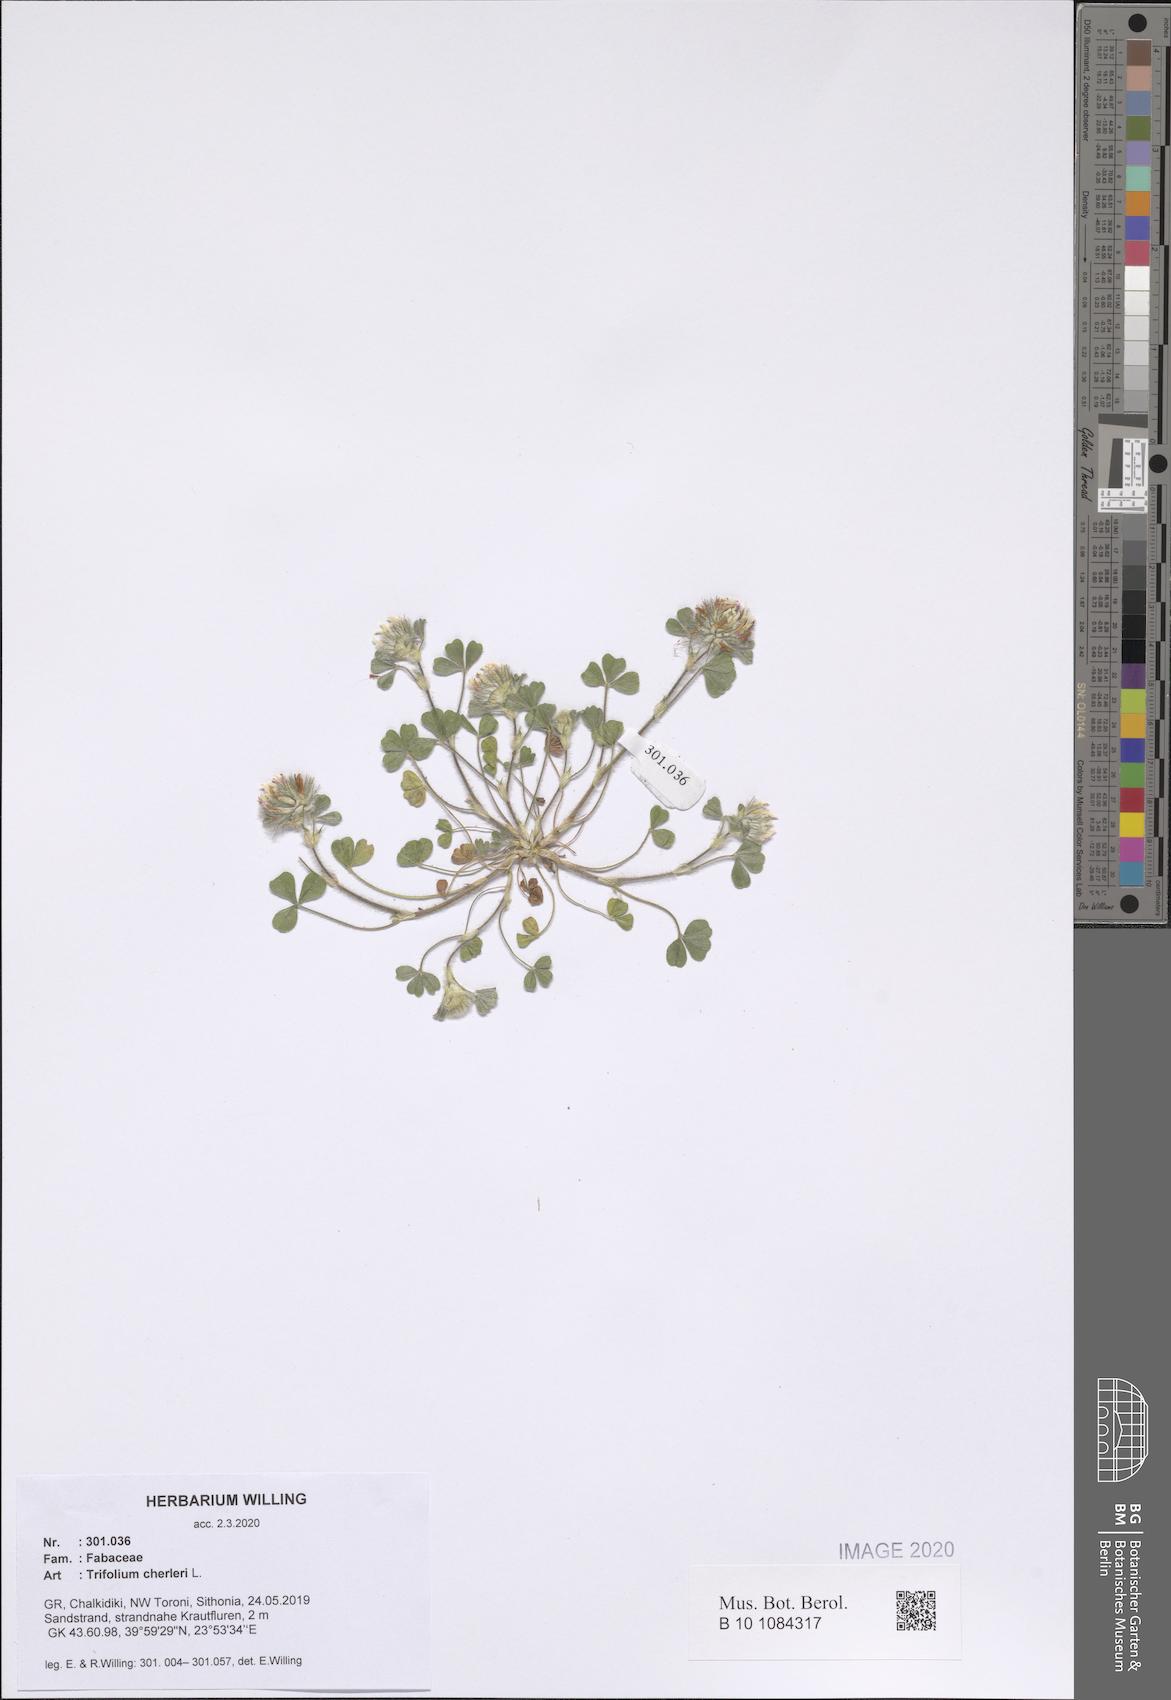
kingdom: Plantae
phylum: Tracheophyta
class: Magnoliopsida
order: Fabales
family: Fabaceae
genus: Trifolium
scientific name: Trifolium cherleri
